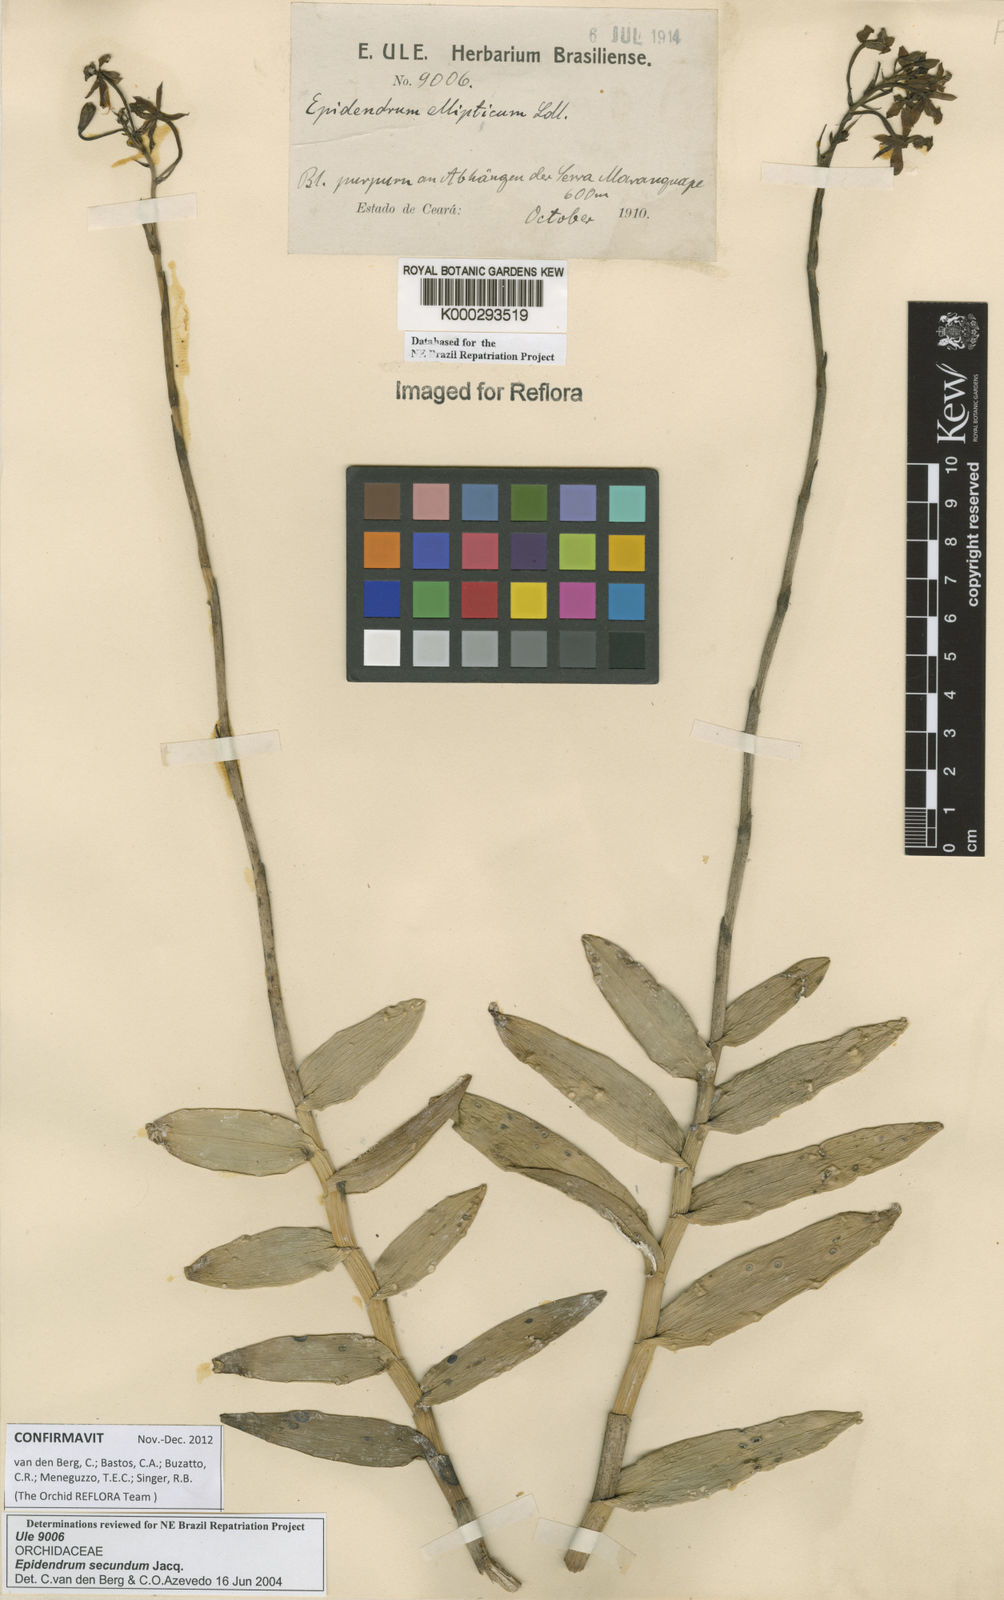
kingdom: Plantae
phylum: Tracheophyta
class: Liliopsida
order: Asparagales
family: Orchidaceae
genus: Epidendrum
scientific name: Epidendrum secundum
